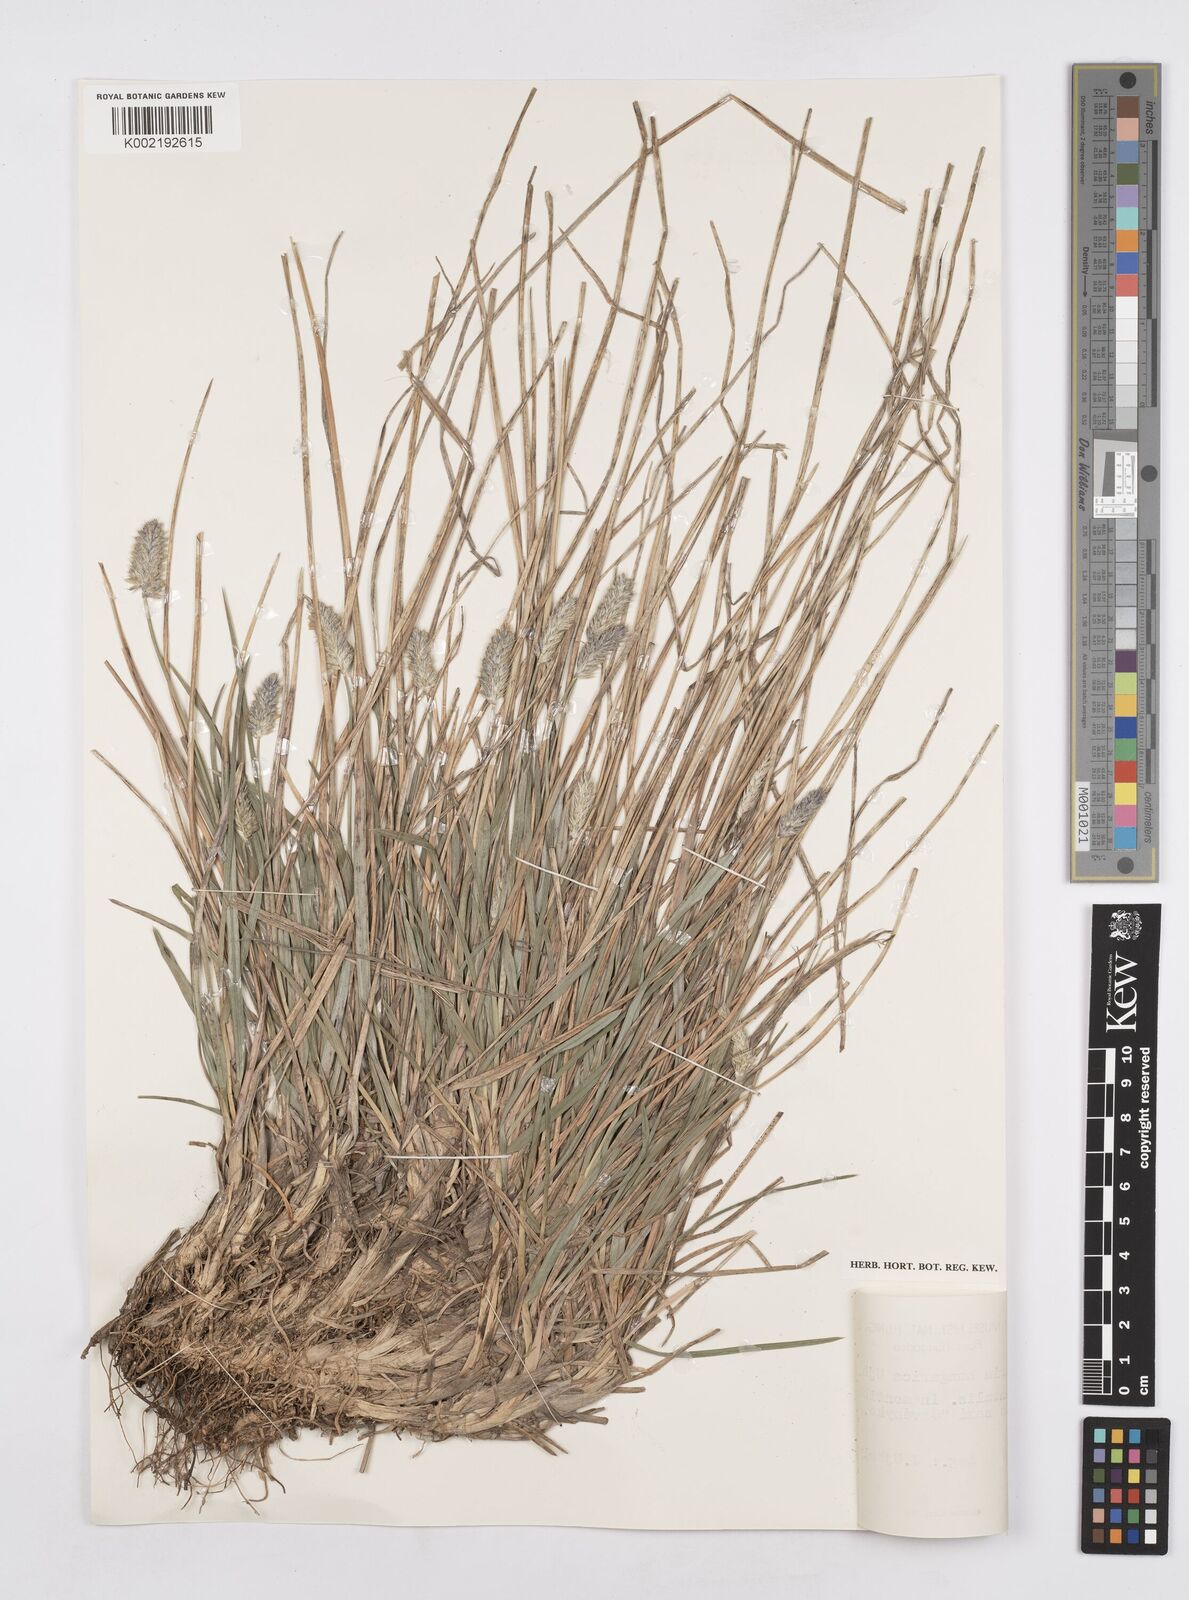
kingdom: Plantae
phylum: Tracheophyta
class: Liliopsida
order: Poales
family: Poaceae
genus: Sesleria
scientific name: Sesleria heufleriana
